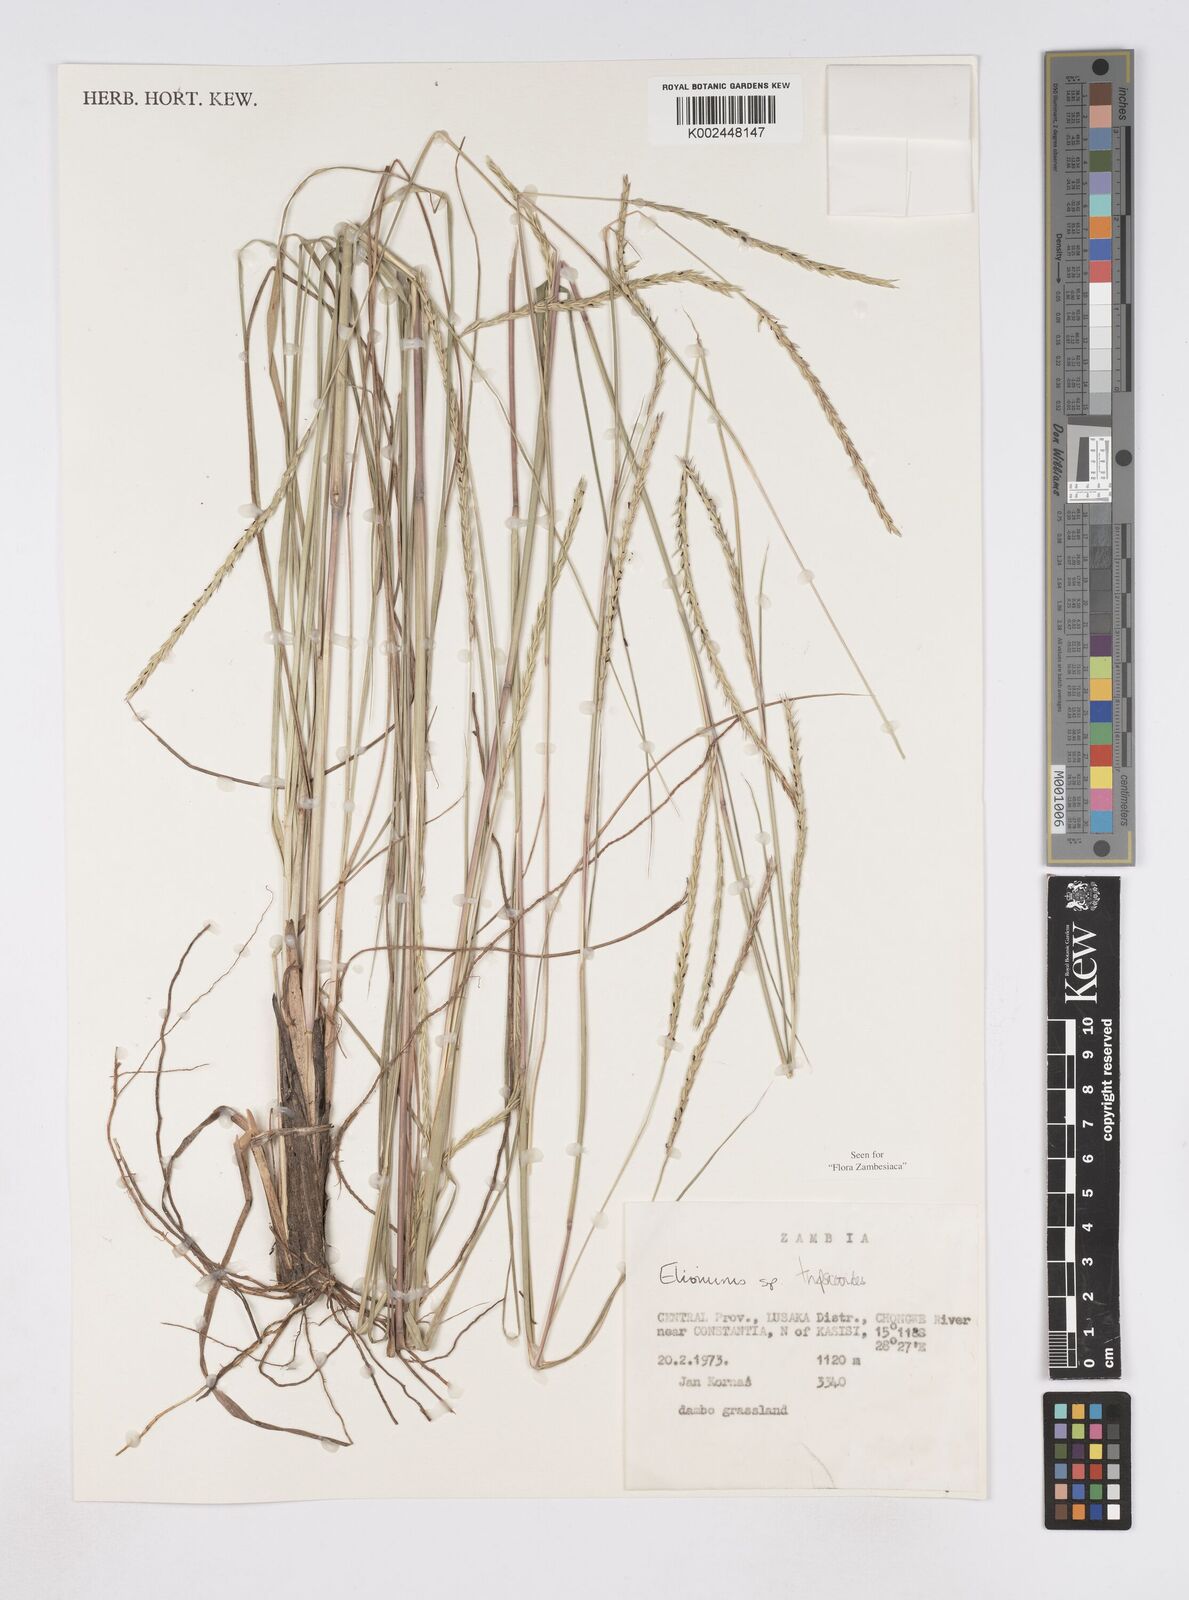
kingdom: Plantae
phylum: Tracheophyta
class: Liliopsida
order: Poales
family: Poaceae
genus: Elionurus
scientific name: Elionurus tripsacoides
